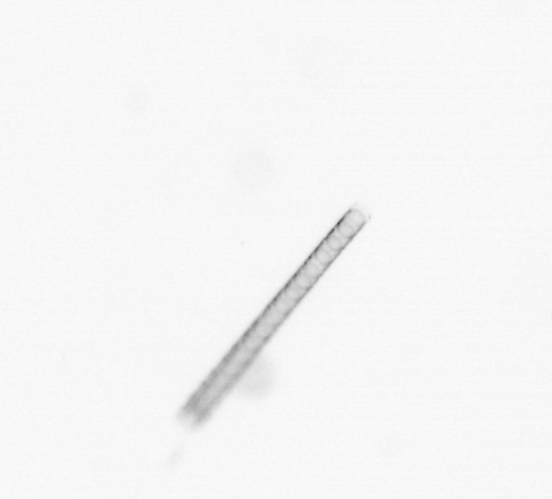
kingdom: Chromista
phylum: Ochrophyta
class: Bacillariophyceae
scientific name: Bacillariophyceae
